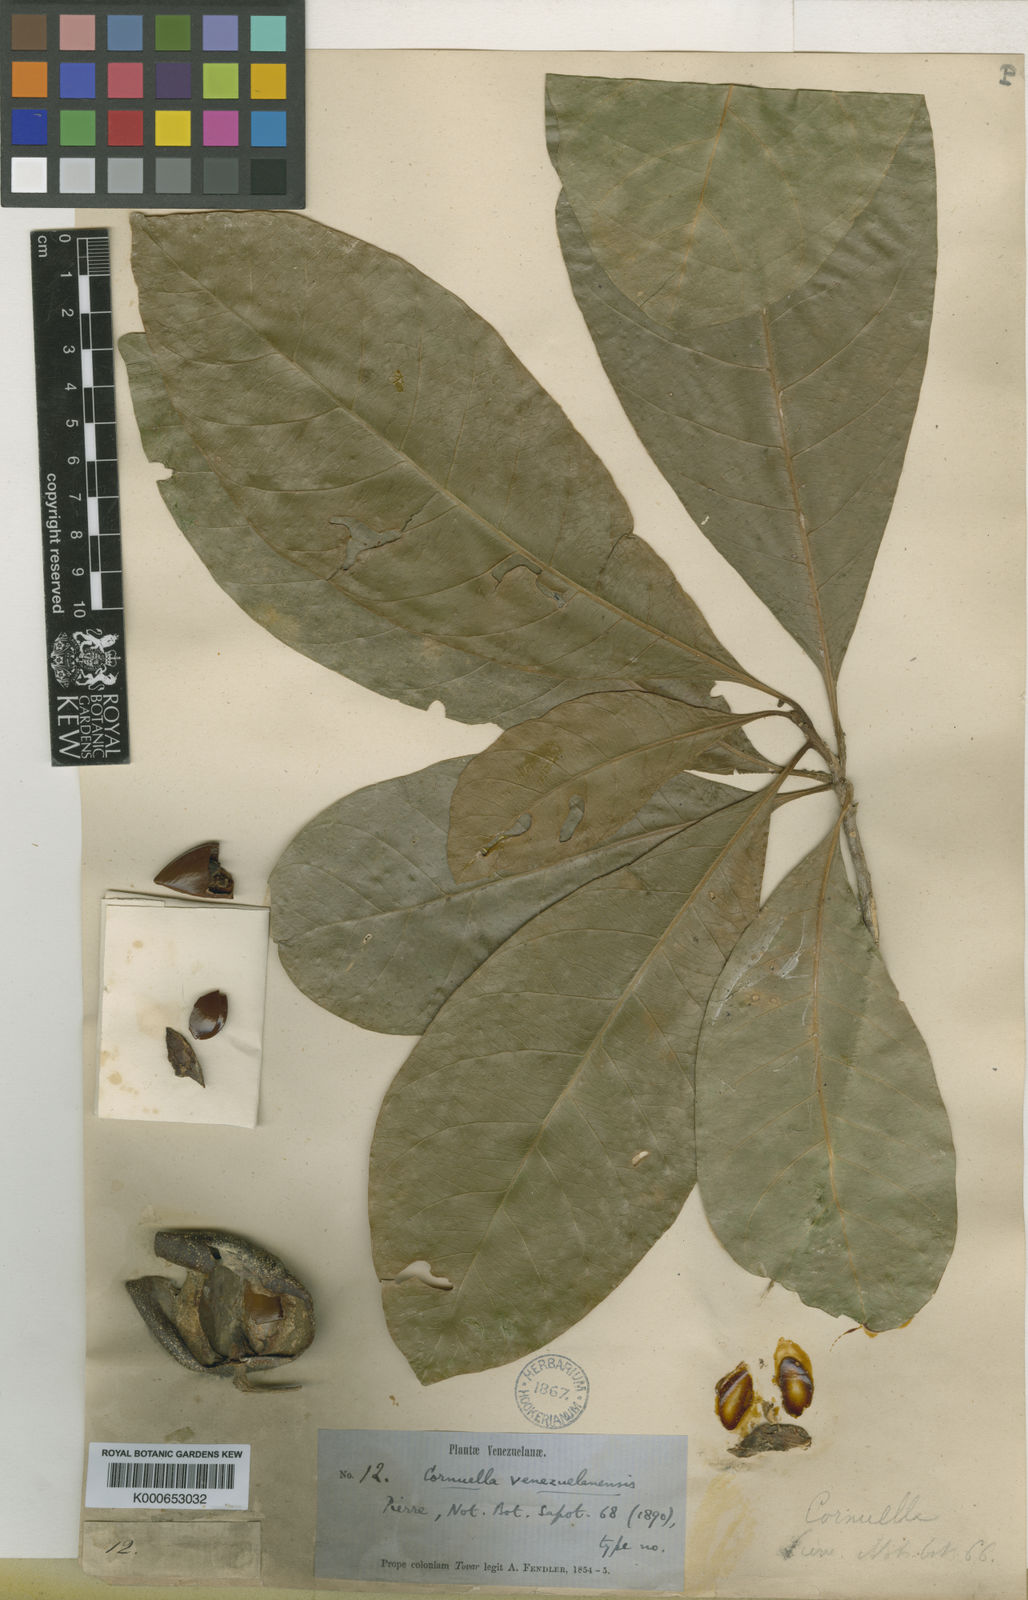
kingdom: Plantae
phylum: Tracheophyta
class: Magnoliopsida
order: Ericales
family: Sapotaceae
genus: Chrysophyllum
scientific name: Chrysophyllum lucentifolium
